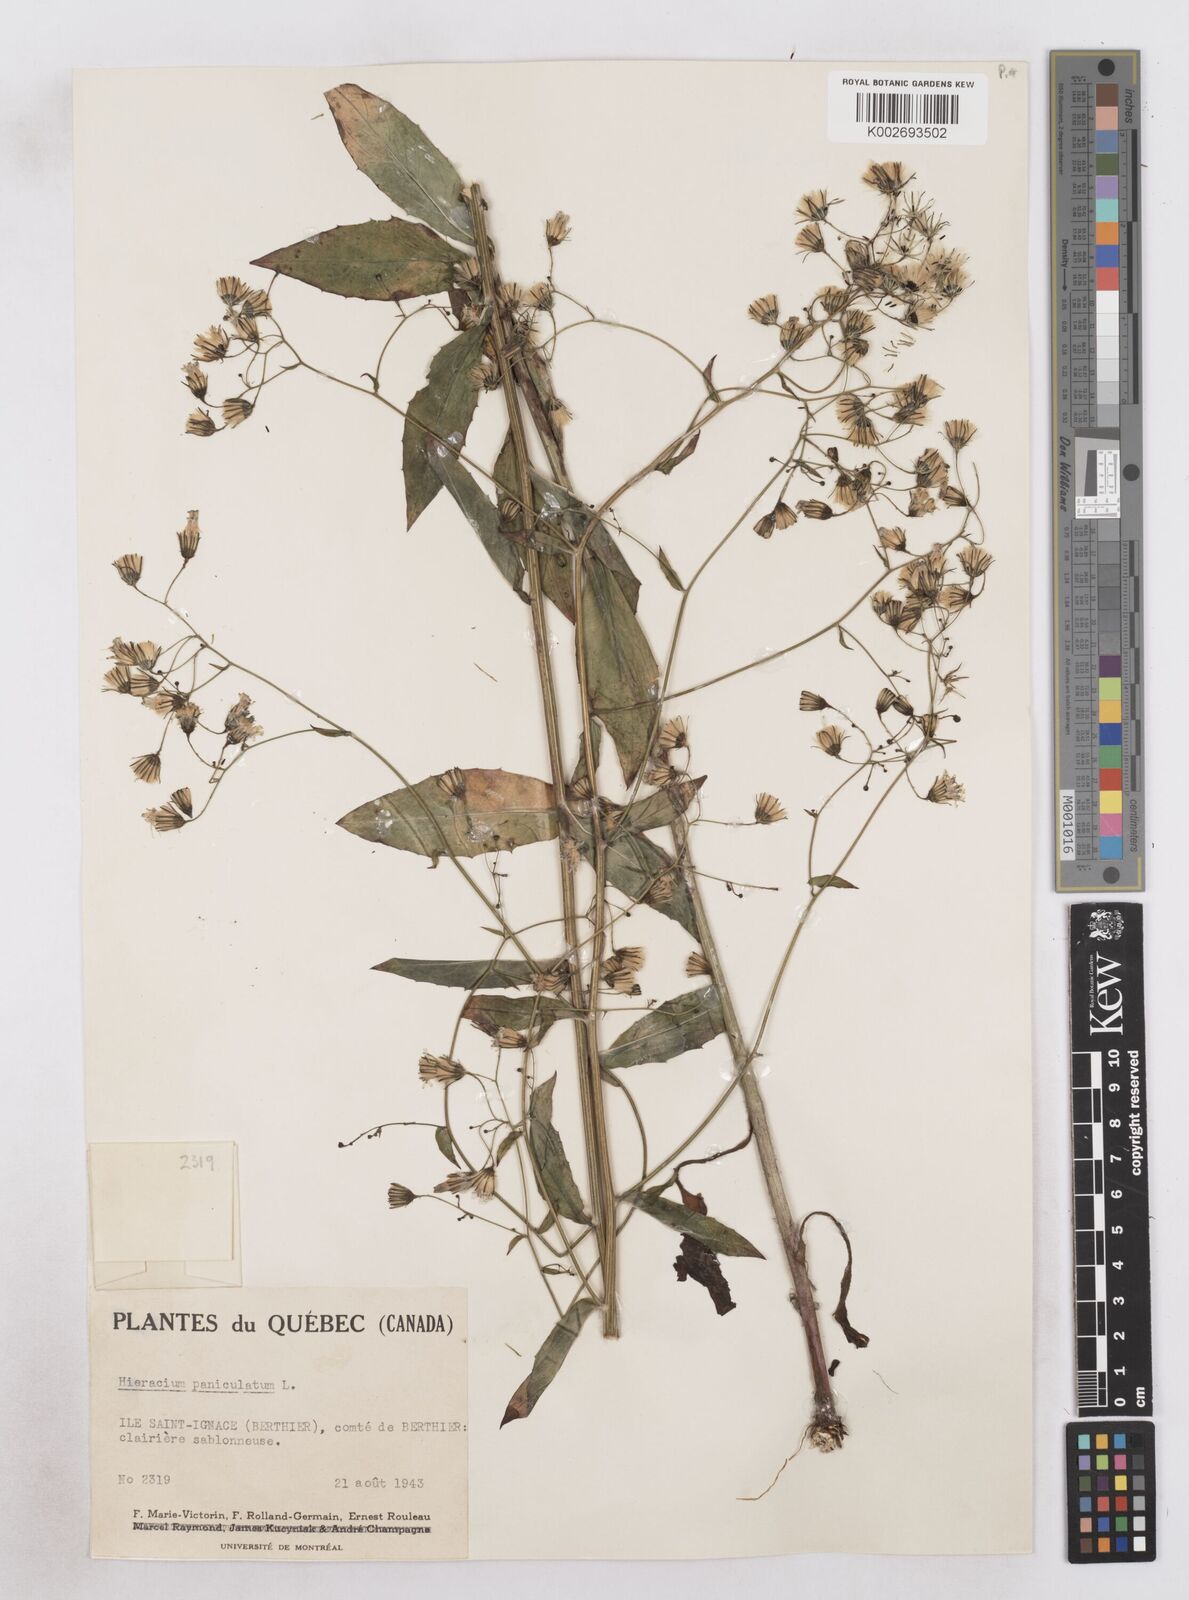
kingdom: Plantae
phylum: Tracheophyta
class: Magnoliopsida
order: Asterales
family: Asteraceae
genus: Hieracium
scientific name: Hieracium paniculatum
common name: Allegheny hawkweed
